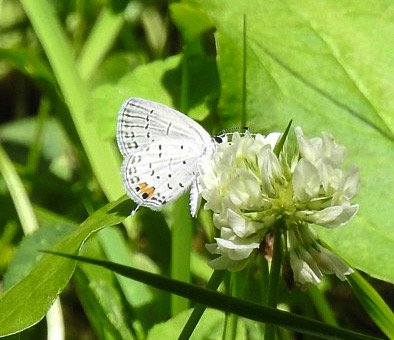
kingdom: Animalia
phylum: Arthropoda
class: Insecta
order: Lepidoptera
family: Lycaenidae
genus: Elkalyce
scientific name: Elkalyce comyntas
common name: Eastern Tailed-Blue
